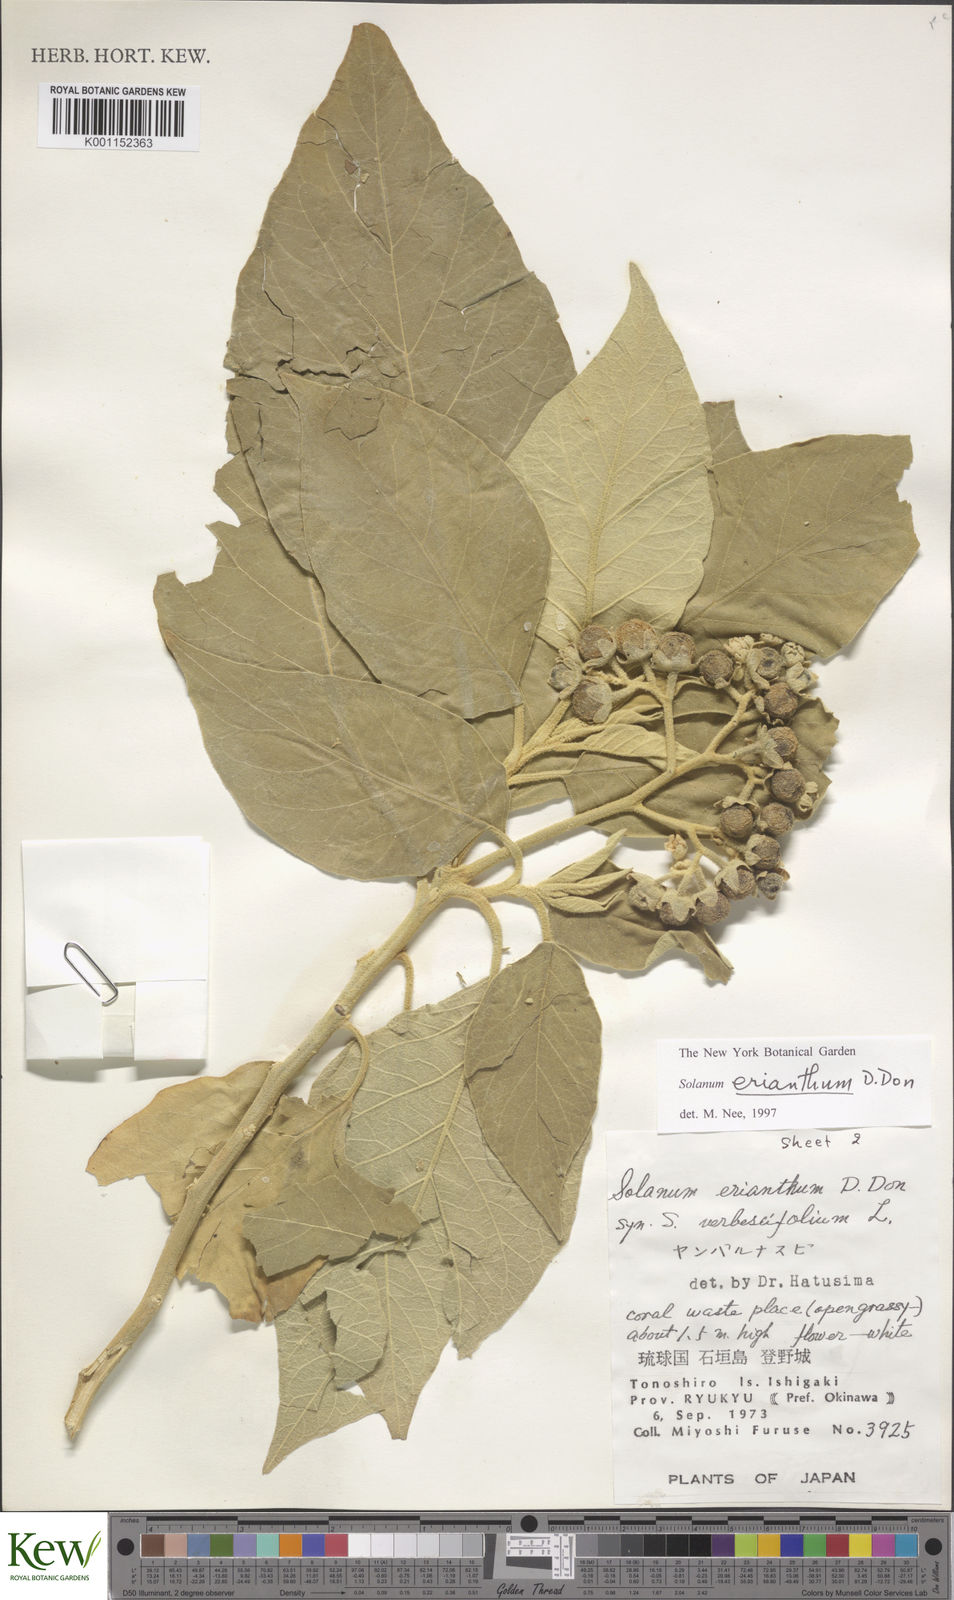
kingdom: Plantae
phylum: Tracheophyta
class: Magnoliopsida
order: Solanales
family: Solanaceae
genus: Solanum
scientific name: Solanum erianthum
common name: Tobacco-tree
